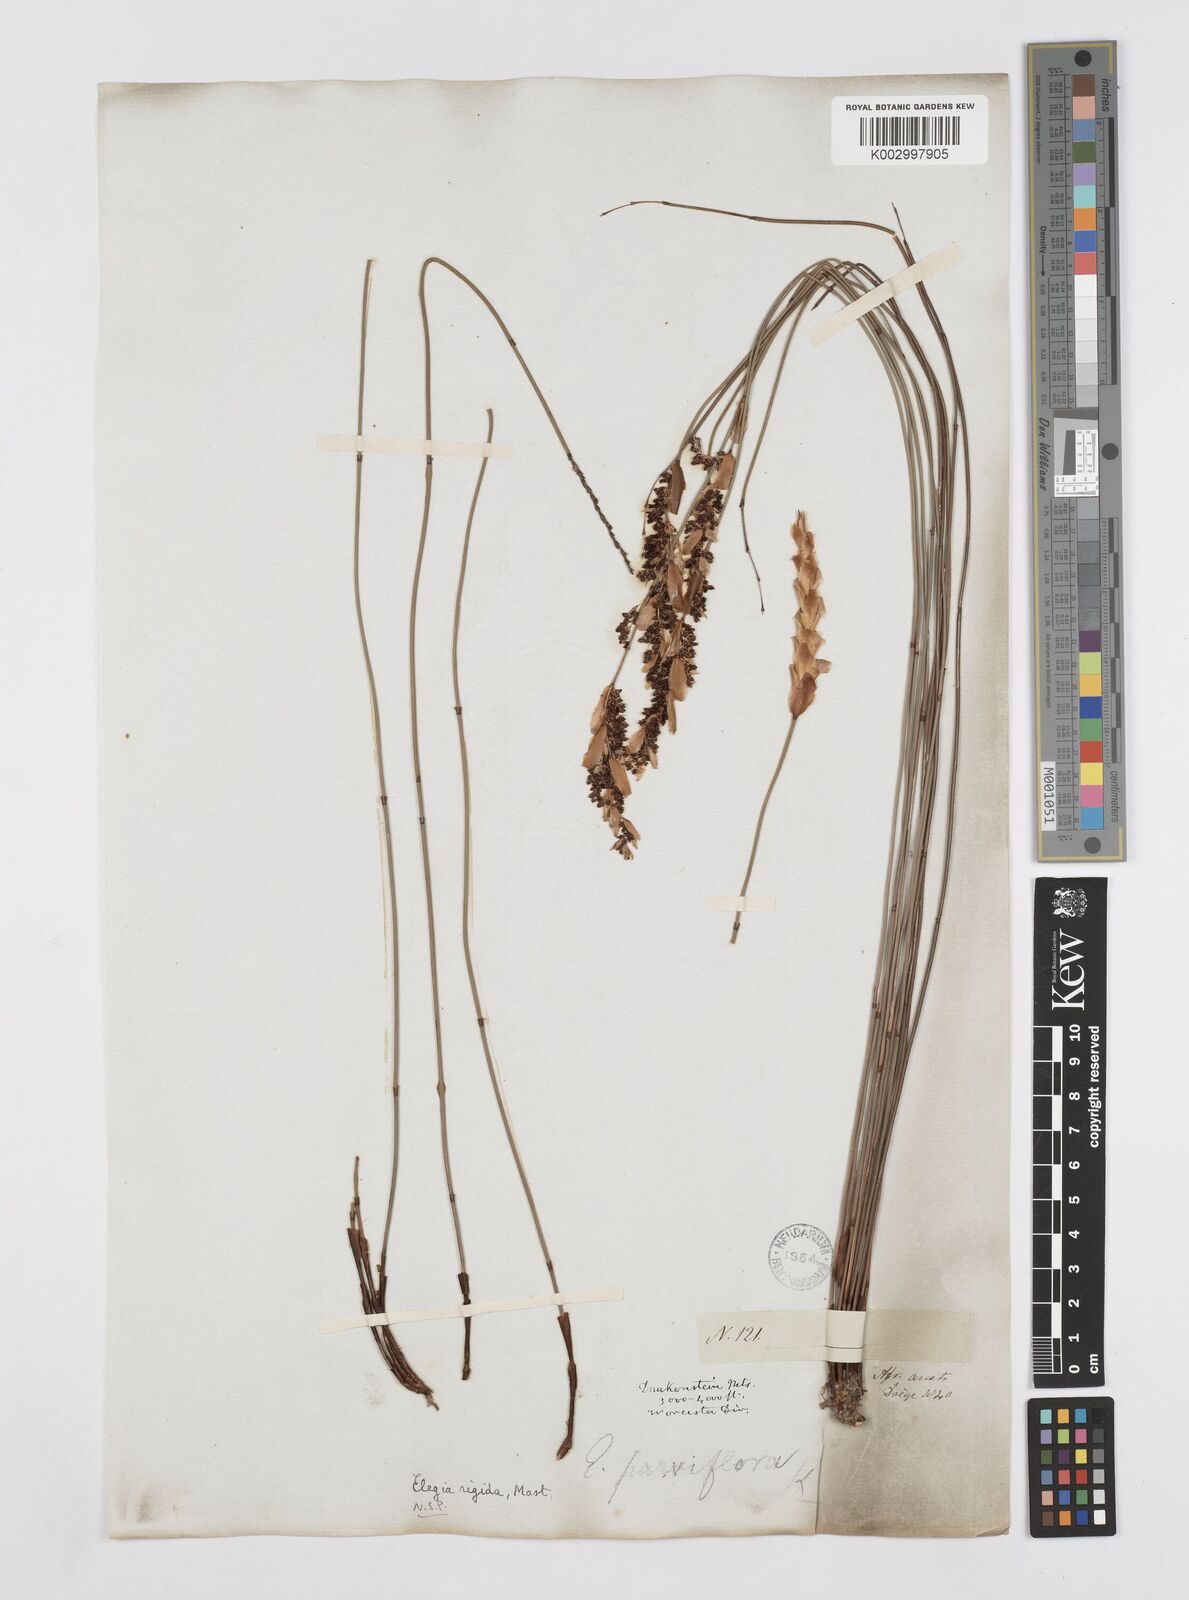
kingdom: Plantae
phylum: Tracheophyta
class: Liliopsida
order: Poales
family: Restionaceae
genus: Elegia
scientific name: Elegia rigida
